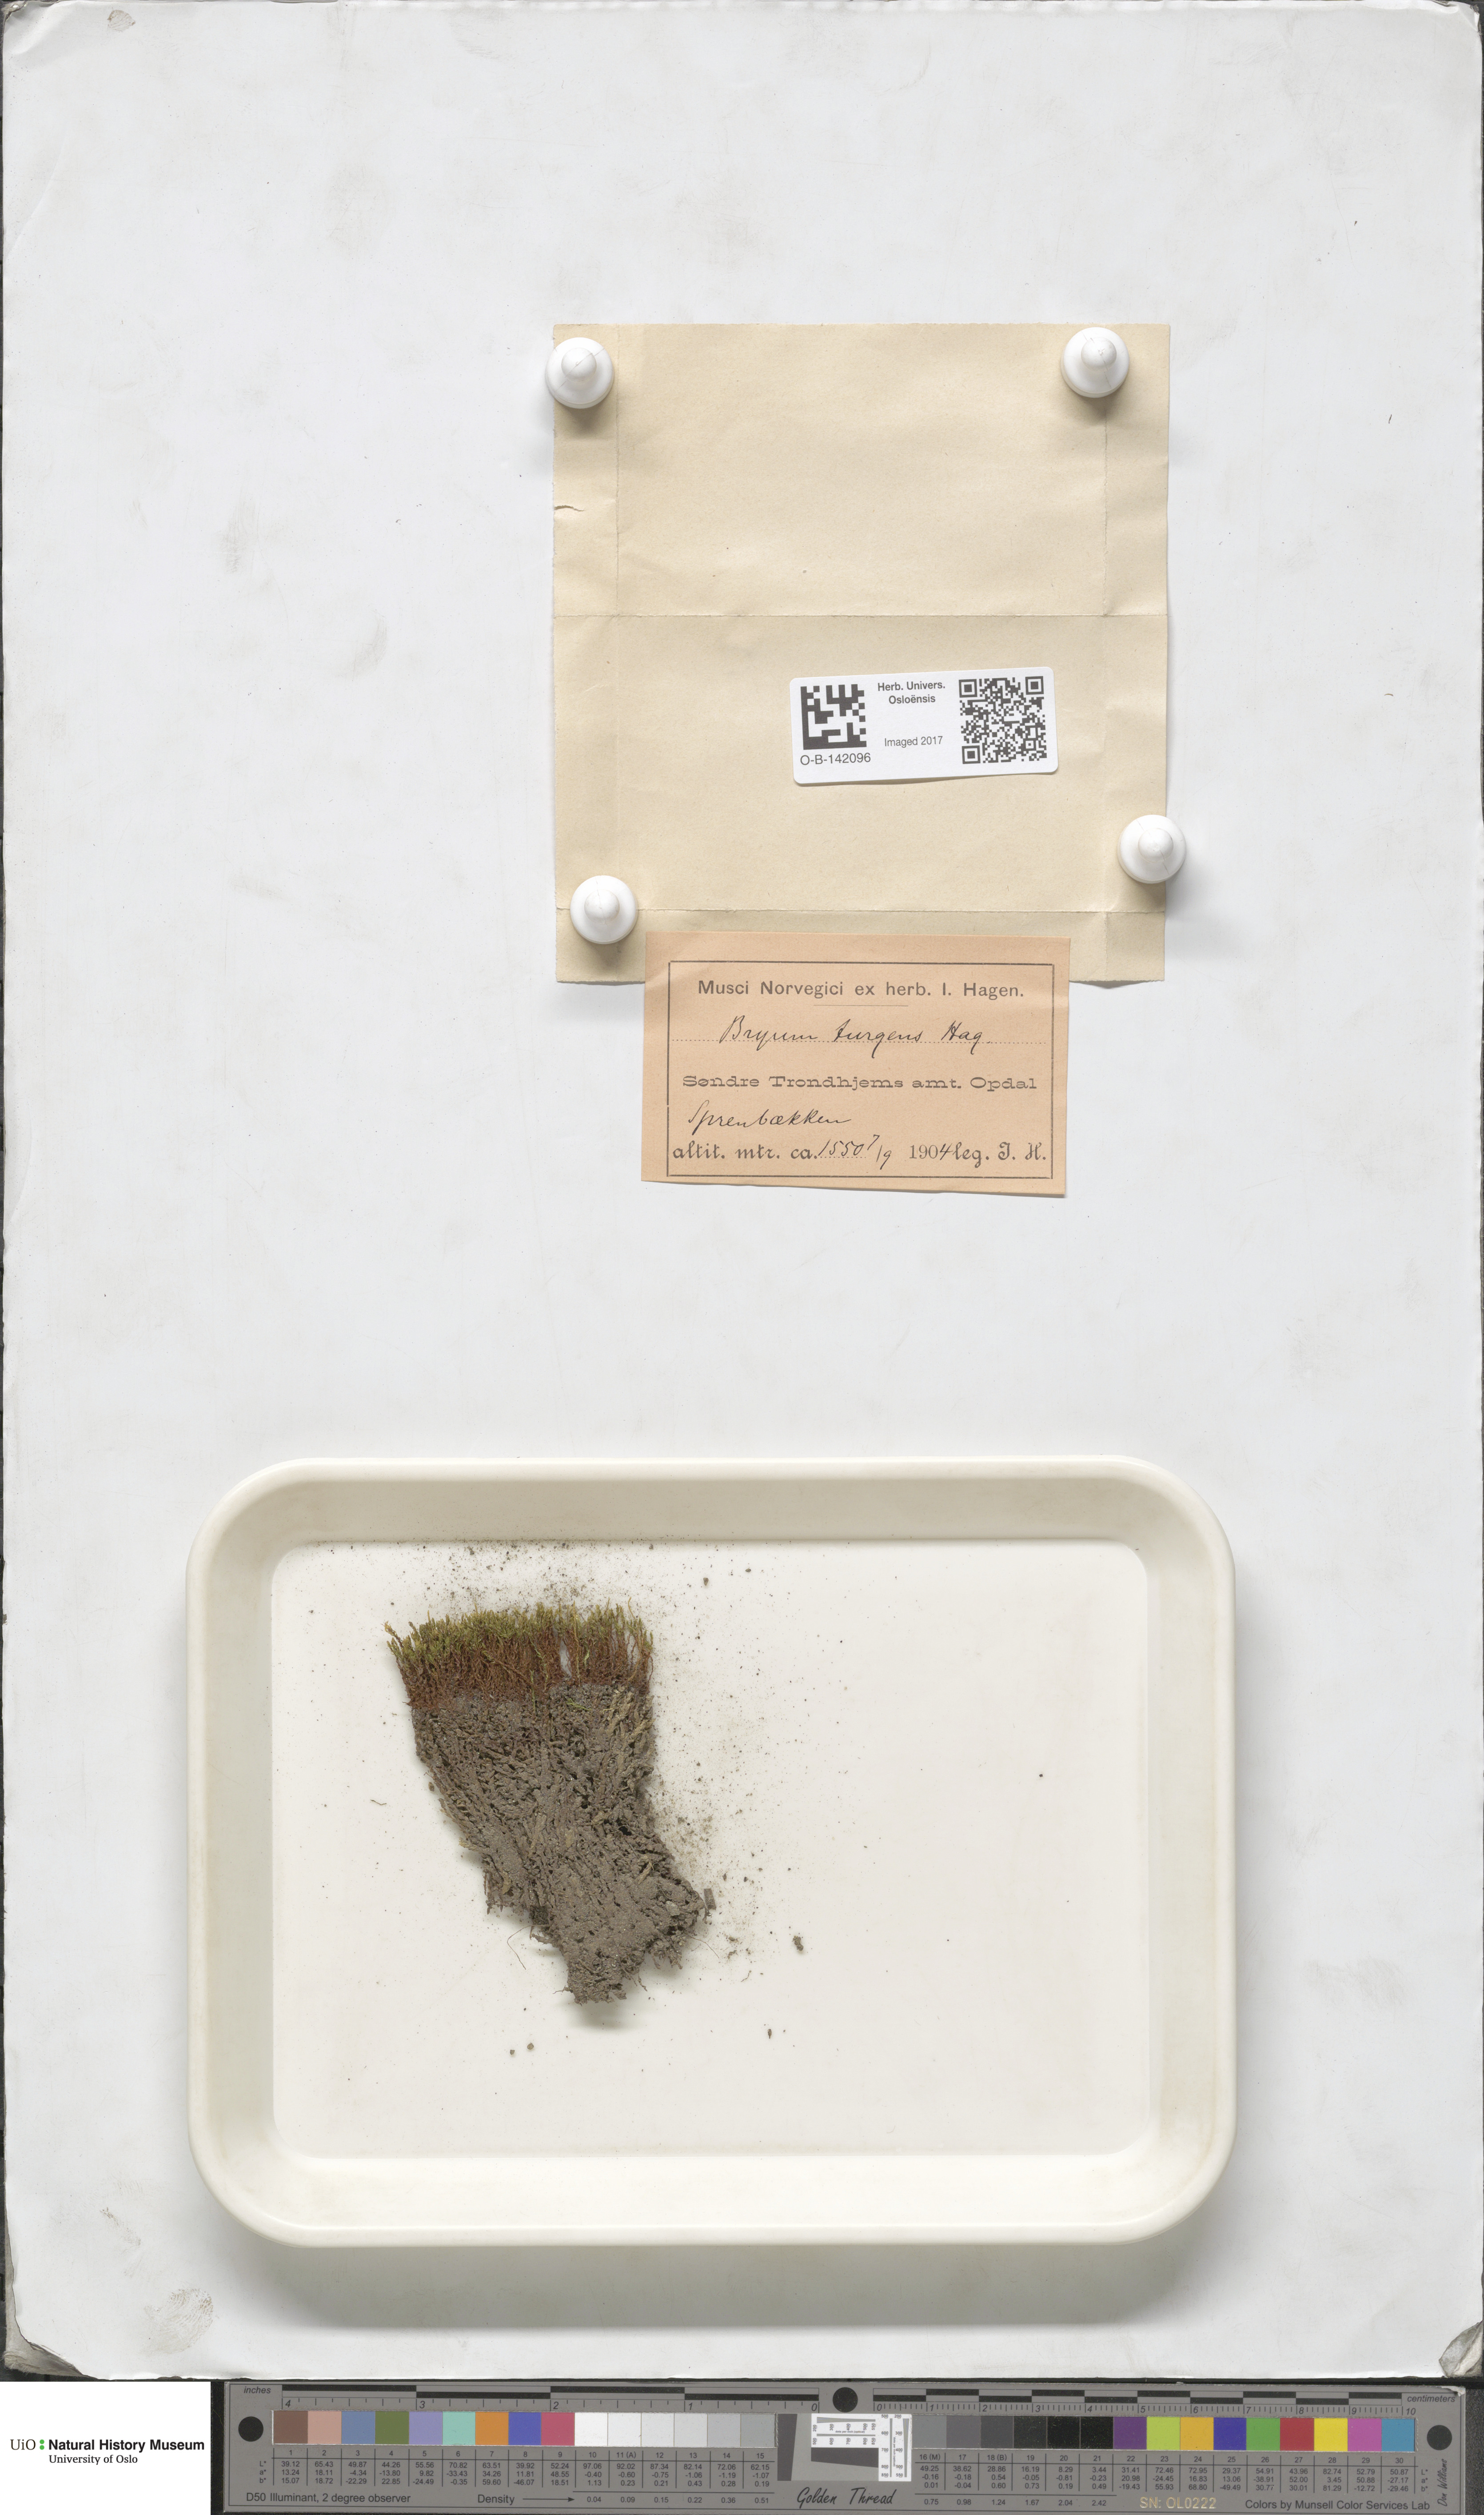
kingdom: Plantae
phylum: Bryophyta
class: Bryopsida
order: Bryales
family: Bryaceae
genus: Ptychostomum
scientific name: Ptychostomum pseudotriquetrum
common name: Long-leaved thread moss
